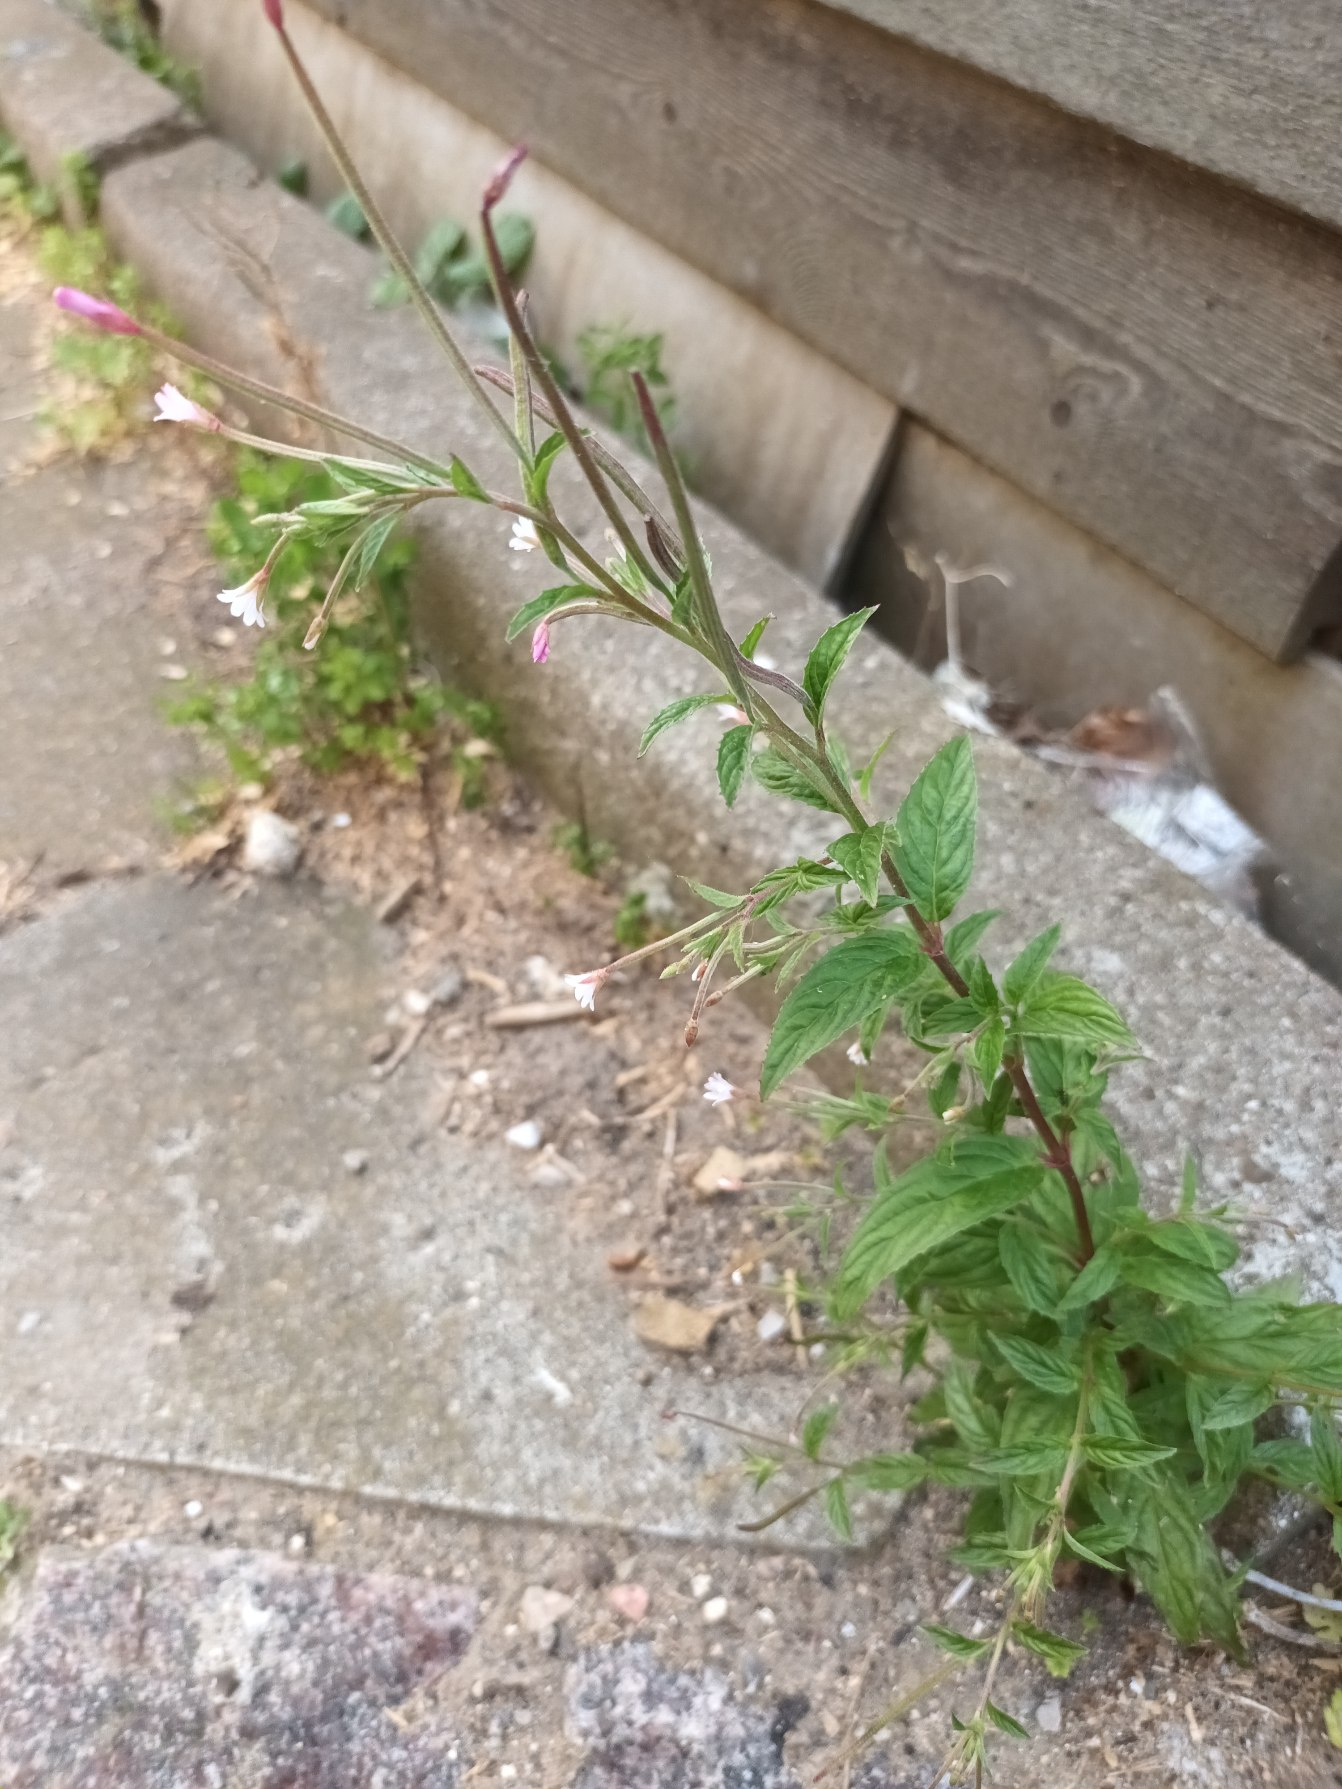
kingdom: Plantae
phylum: Tracheophyta
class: Magnoliopsida
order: Myrtales
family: Onagraceae
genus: Epilobium
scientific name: Epilobium roseum
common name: Rosen-dueurt
